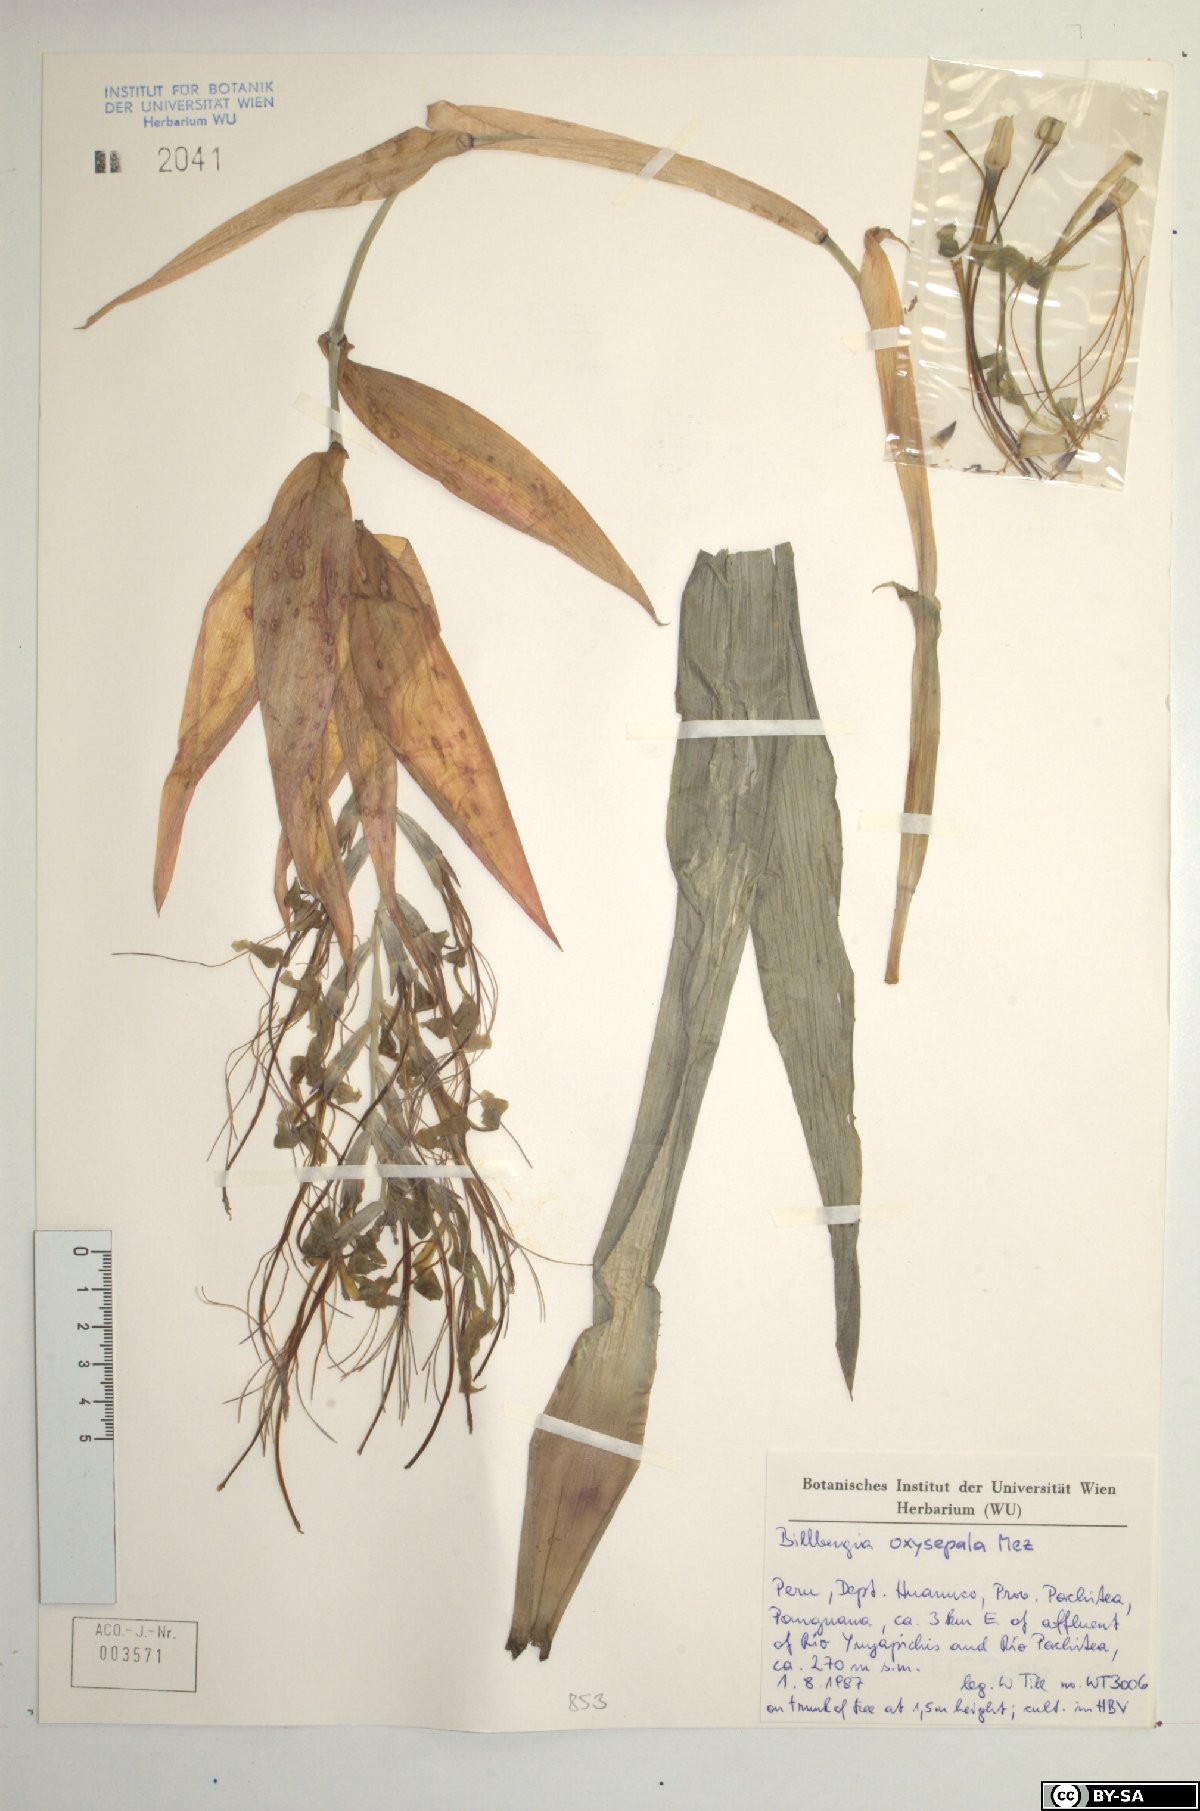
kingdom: Plantae
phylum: Tracheophyta
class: Liliopsida
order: Poales
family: Bromeliaceae
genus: Billbergia
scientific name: Billbergia oxysepala
